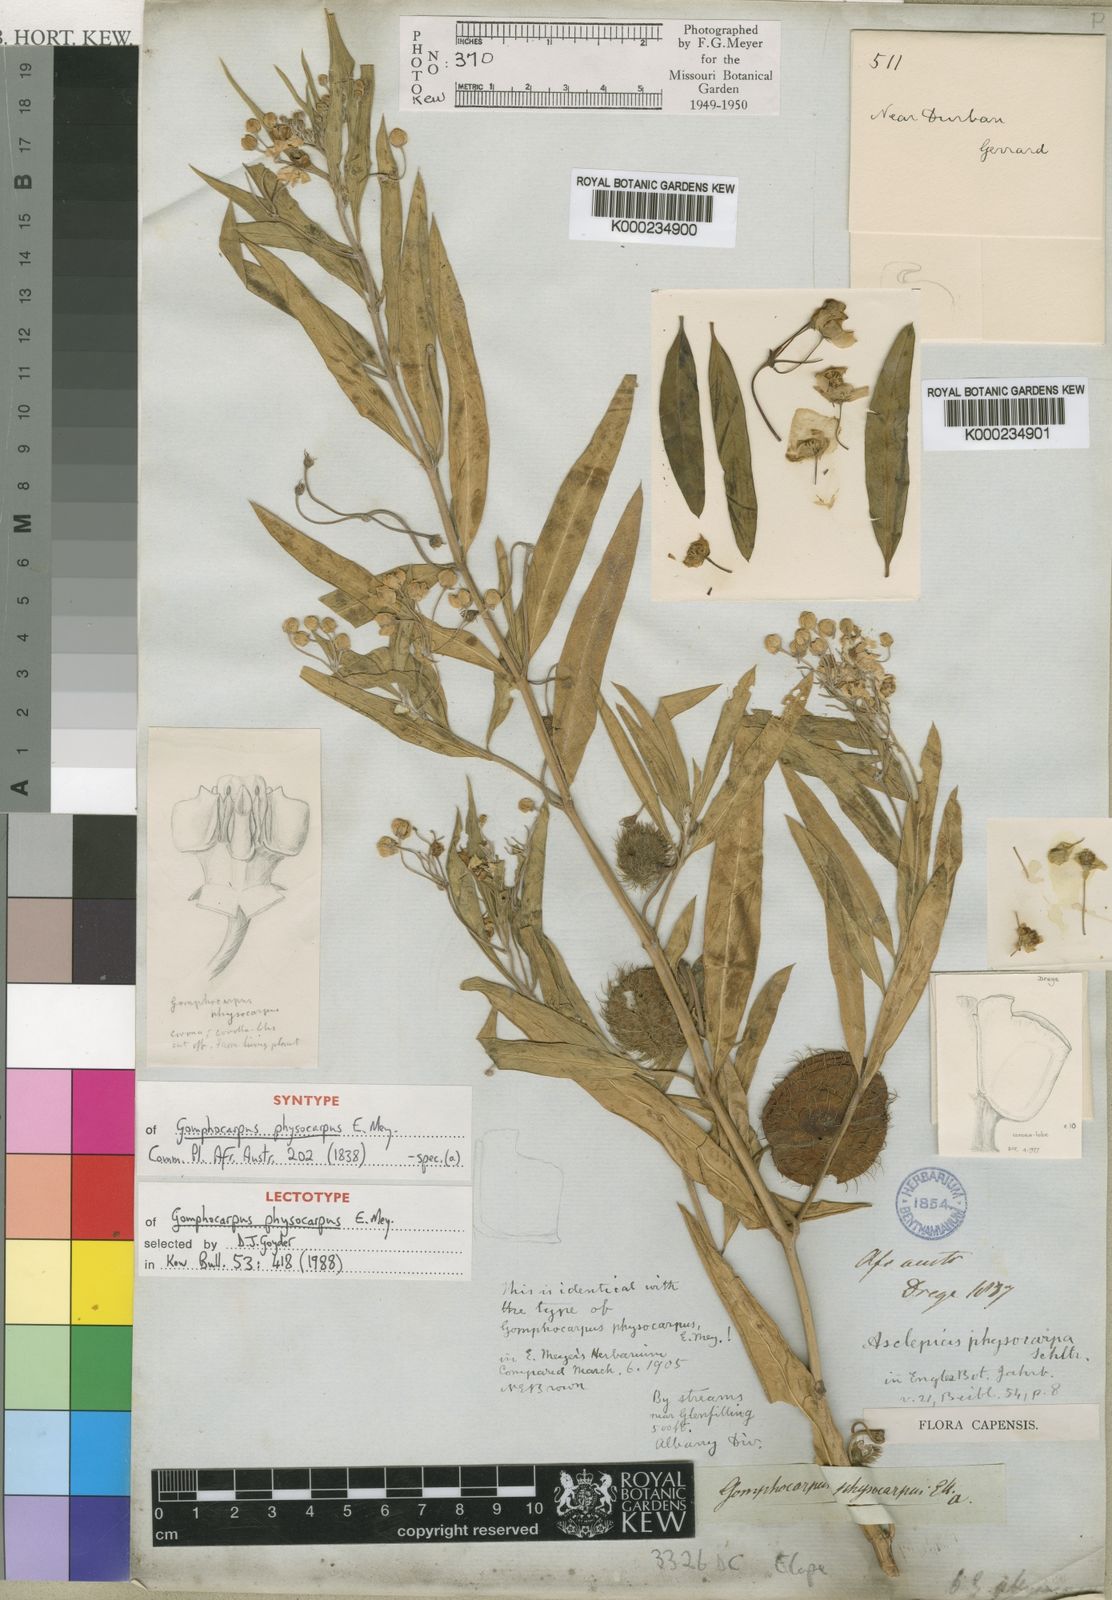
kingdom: Plantae
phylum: Tracheophyta
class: Magnoliopsida
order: Gentianales
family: Apocynaceae
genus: Gomphocarpus
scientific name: Gomphocarpus physocarpus
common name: Balloon cotton bush
